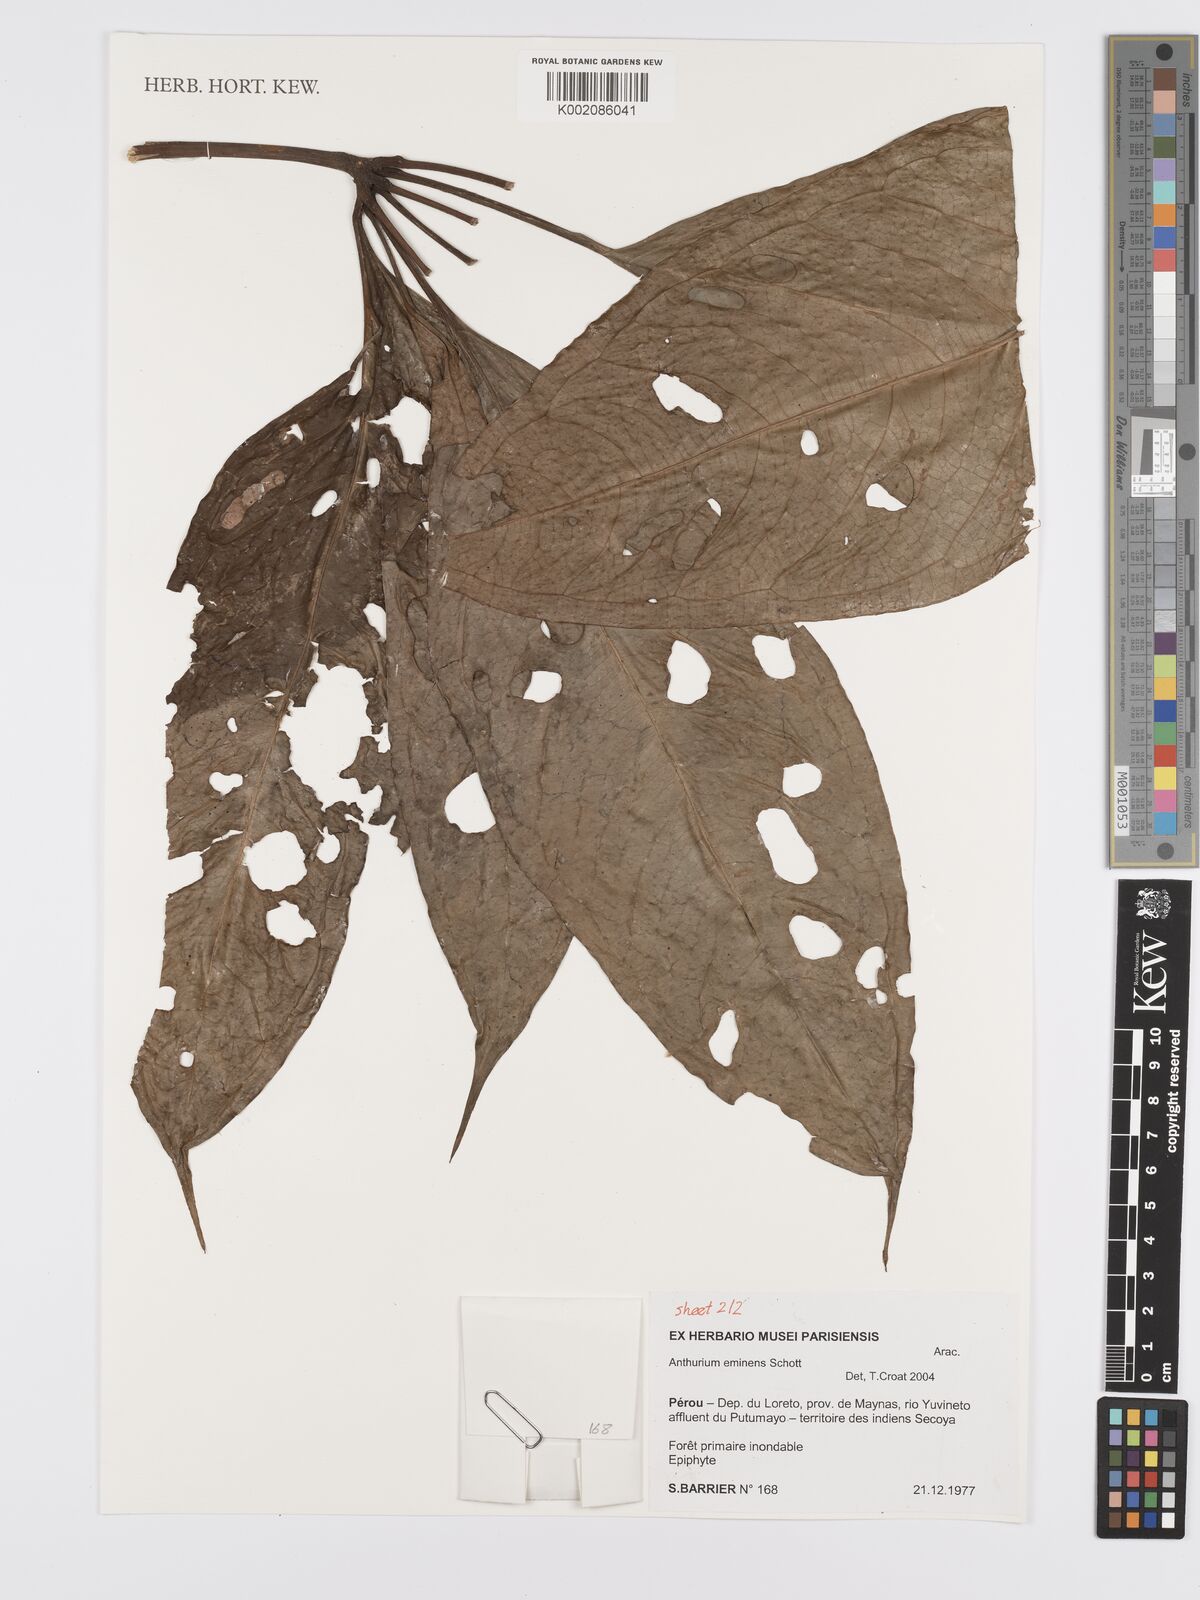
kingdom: Plantae
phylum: Tracheophyta
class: Liliopsida
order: Alismatales
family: Araceae
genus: Anthurium
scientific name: Anthurium eminens
